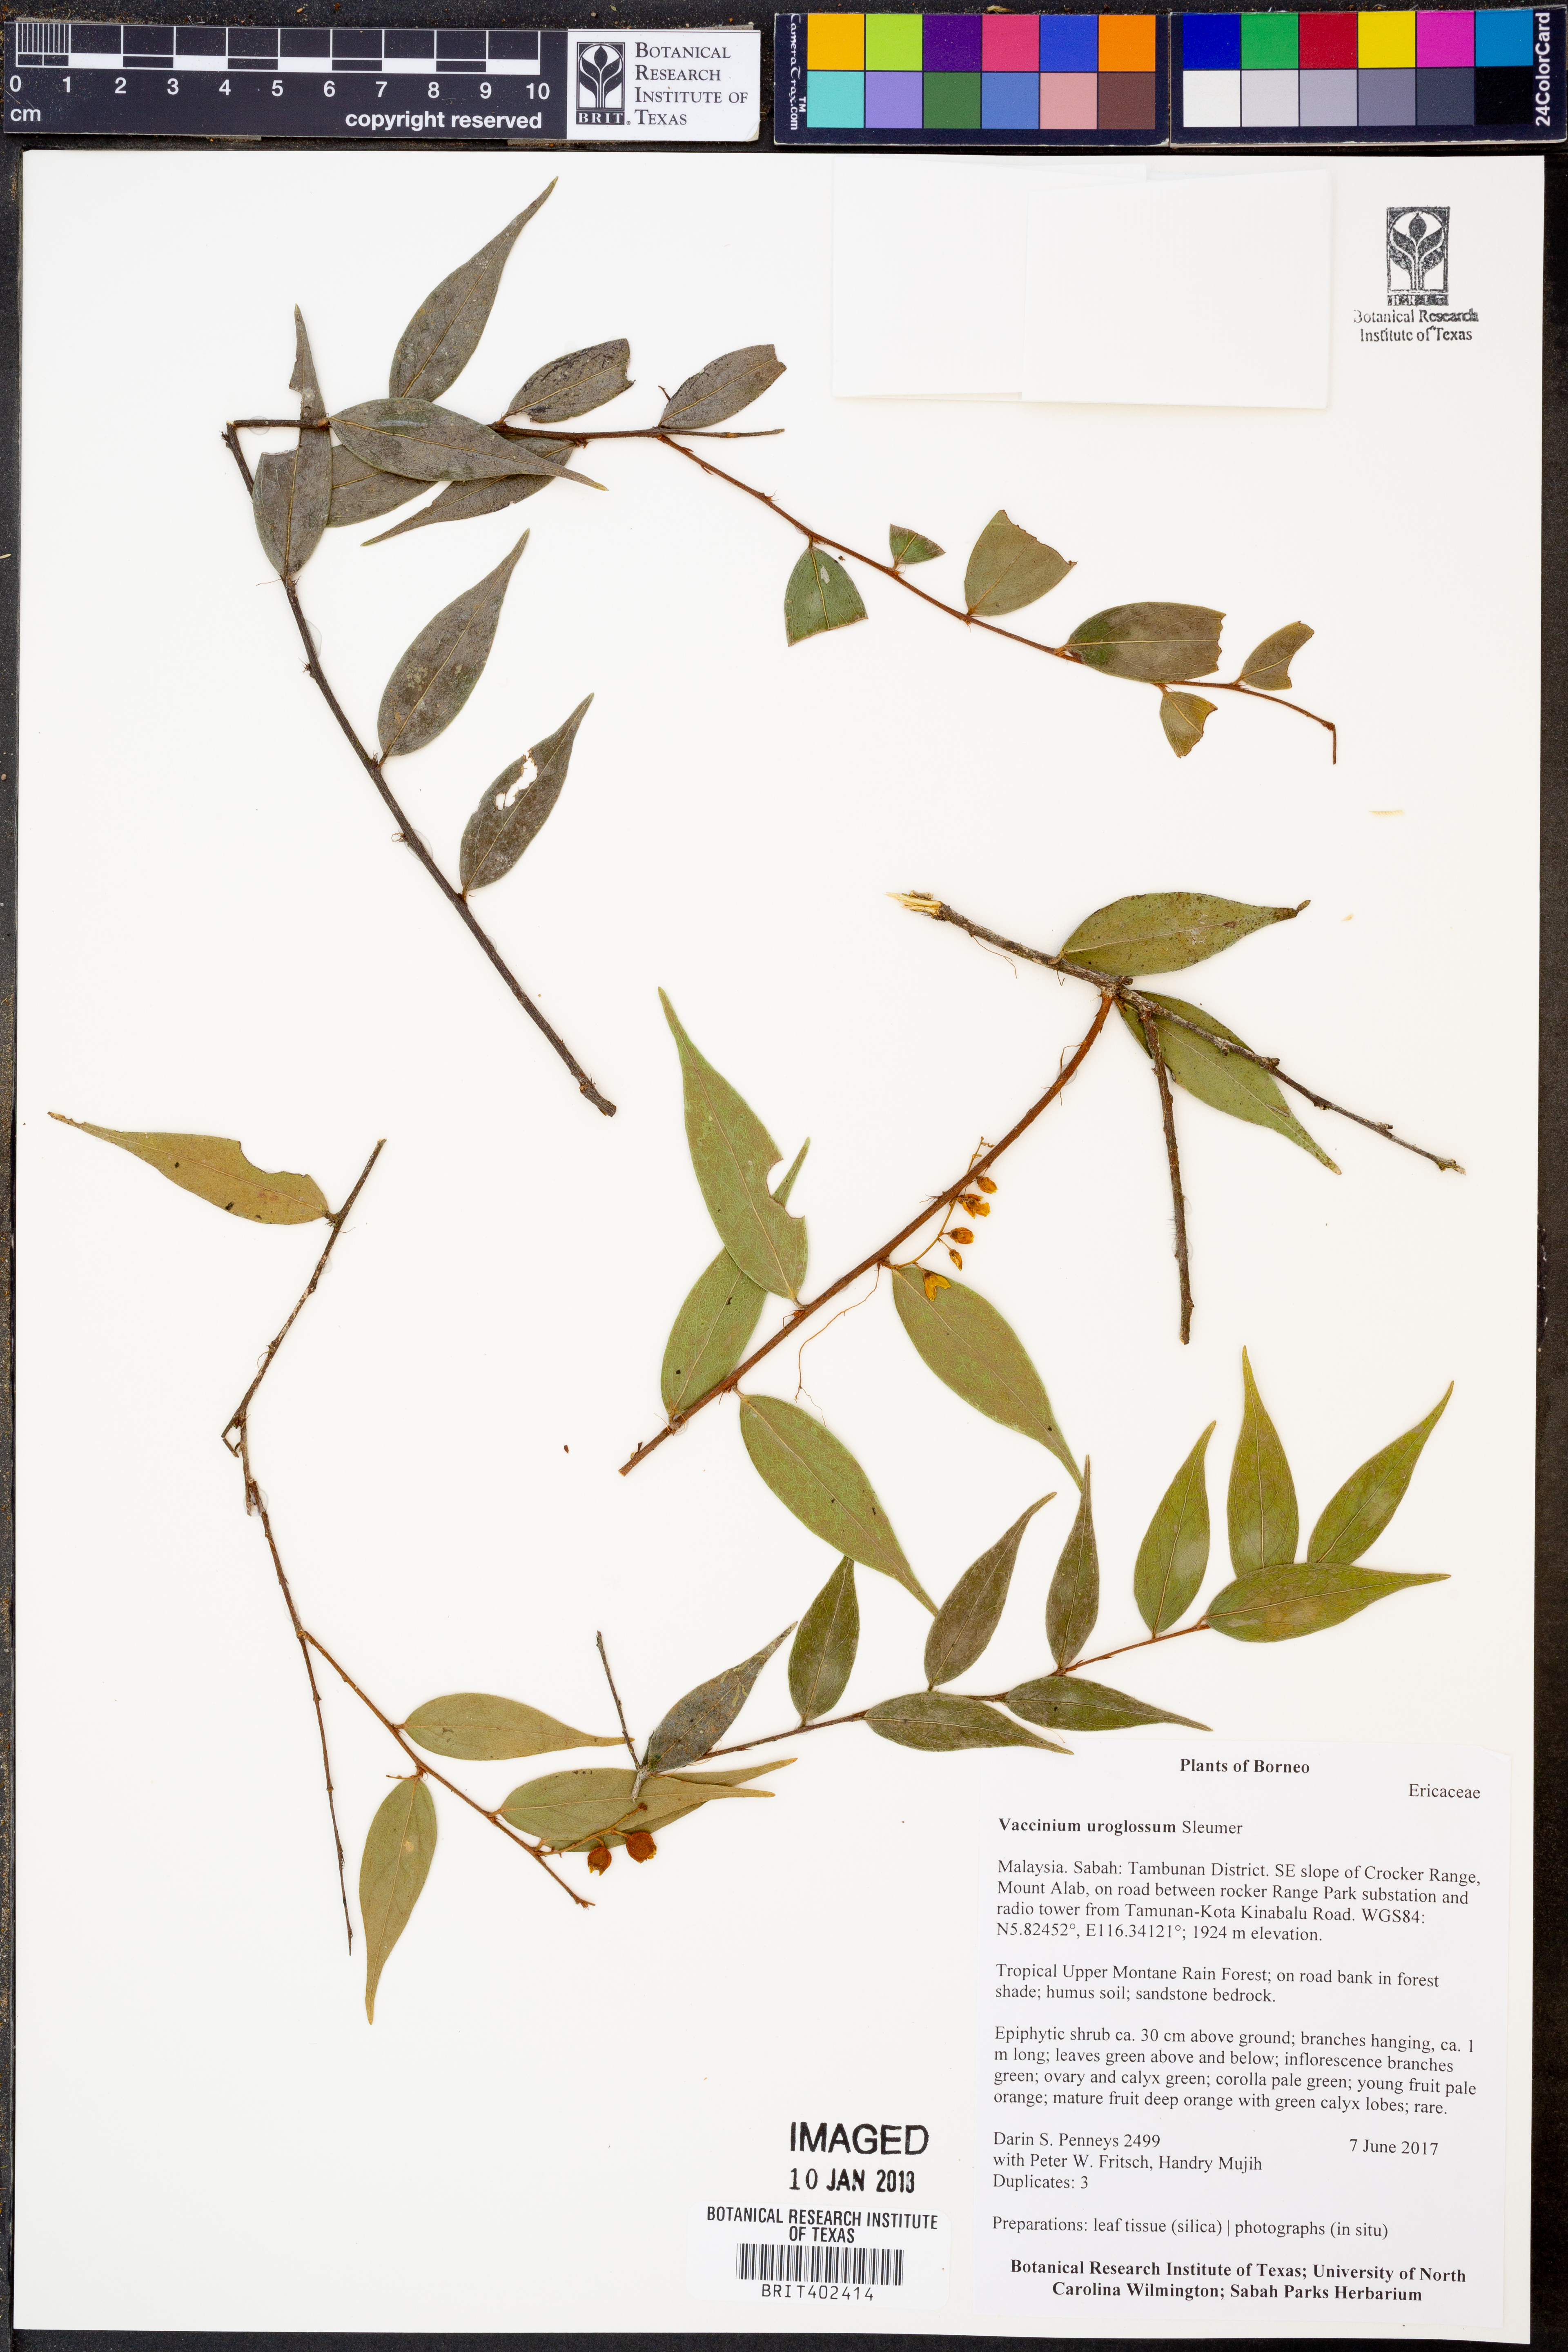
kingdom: Plantae
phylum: Tracheophyta
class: Magnoliopsida
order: Ericales
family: Ericaceae
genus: Rigiolepis
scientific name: Rigiolepis uroglossa
